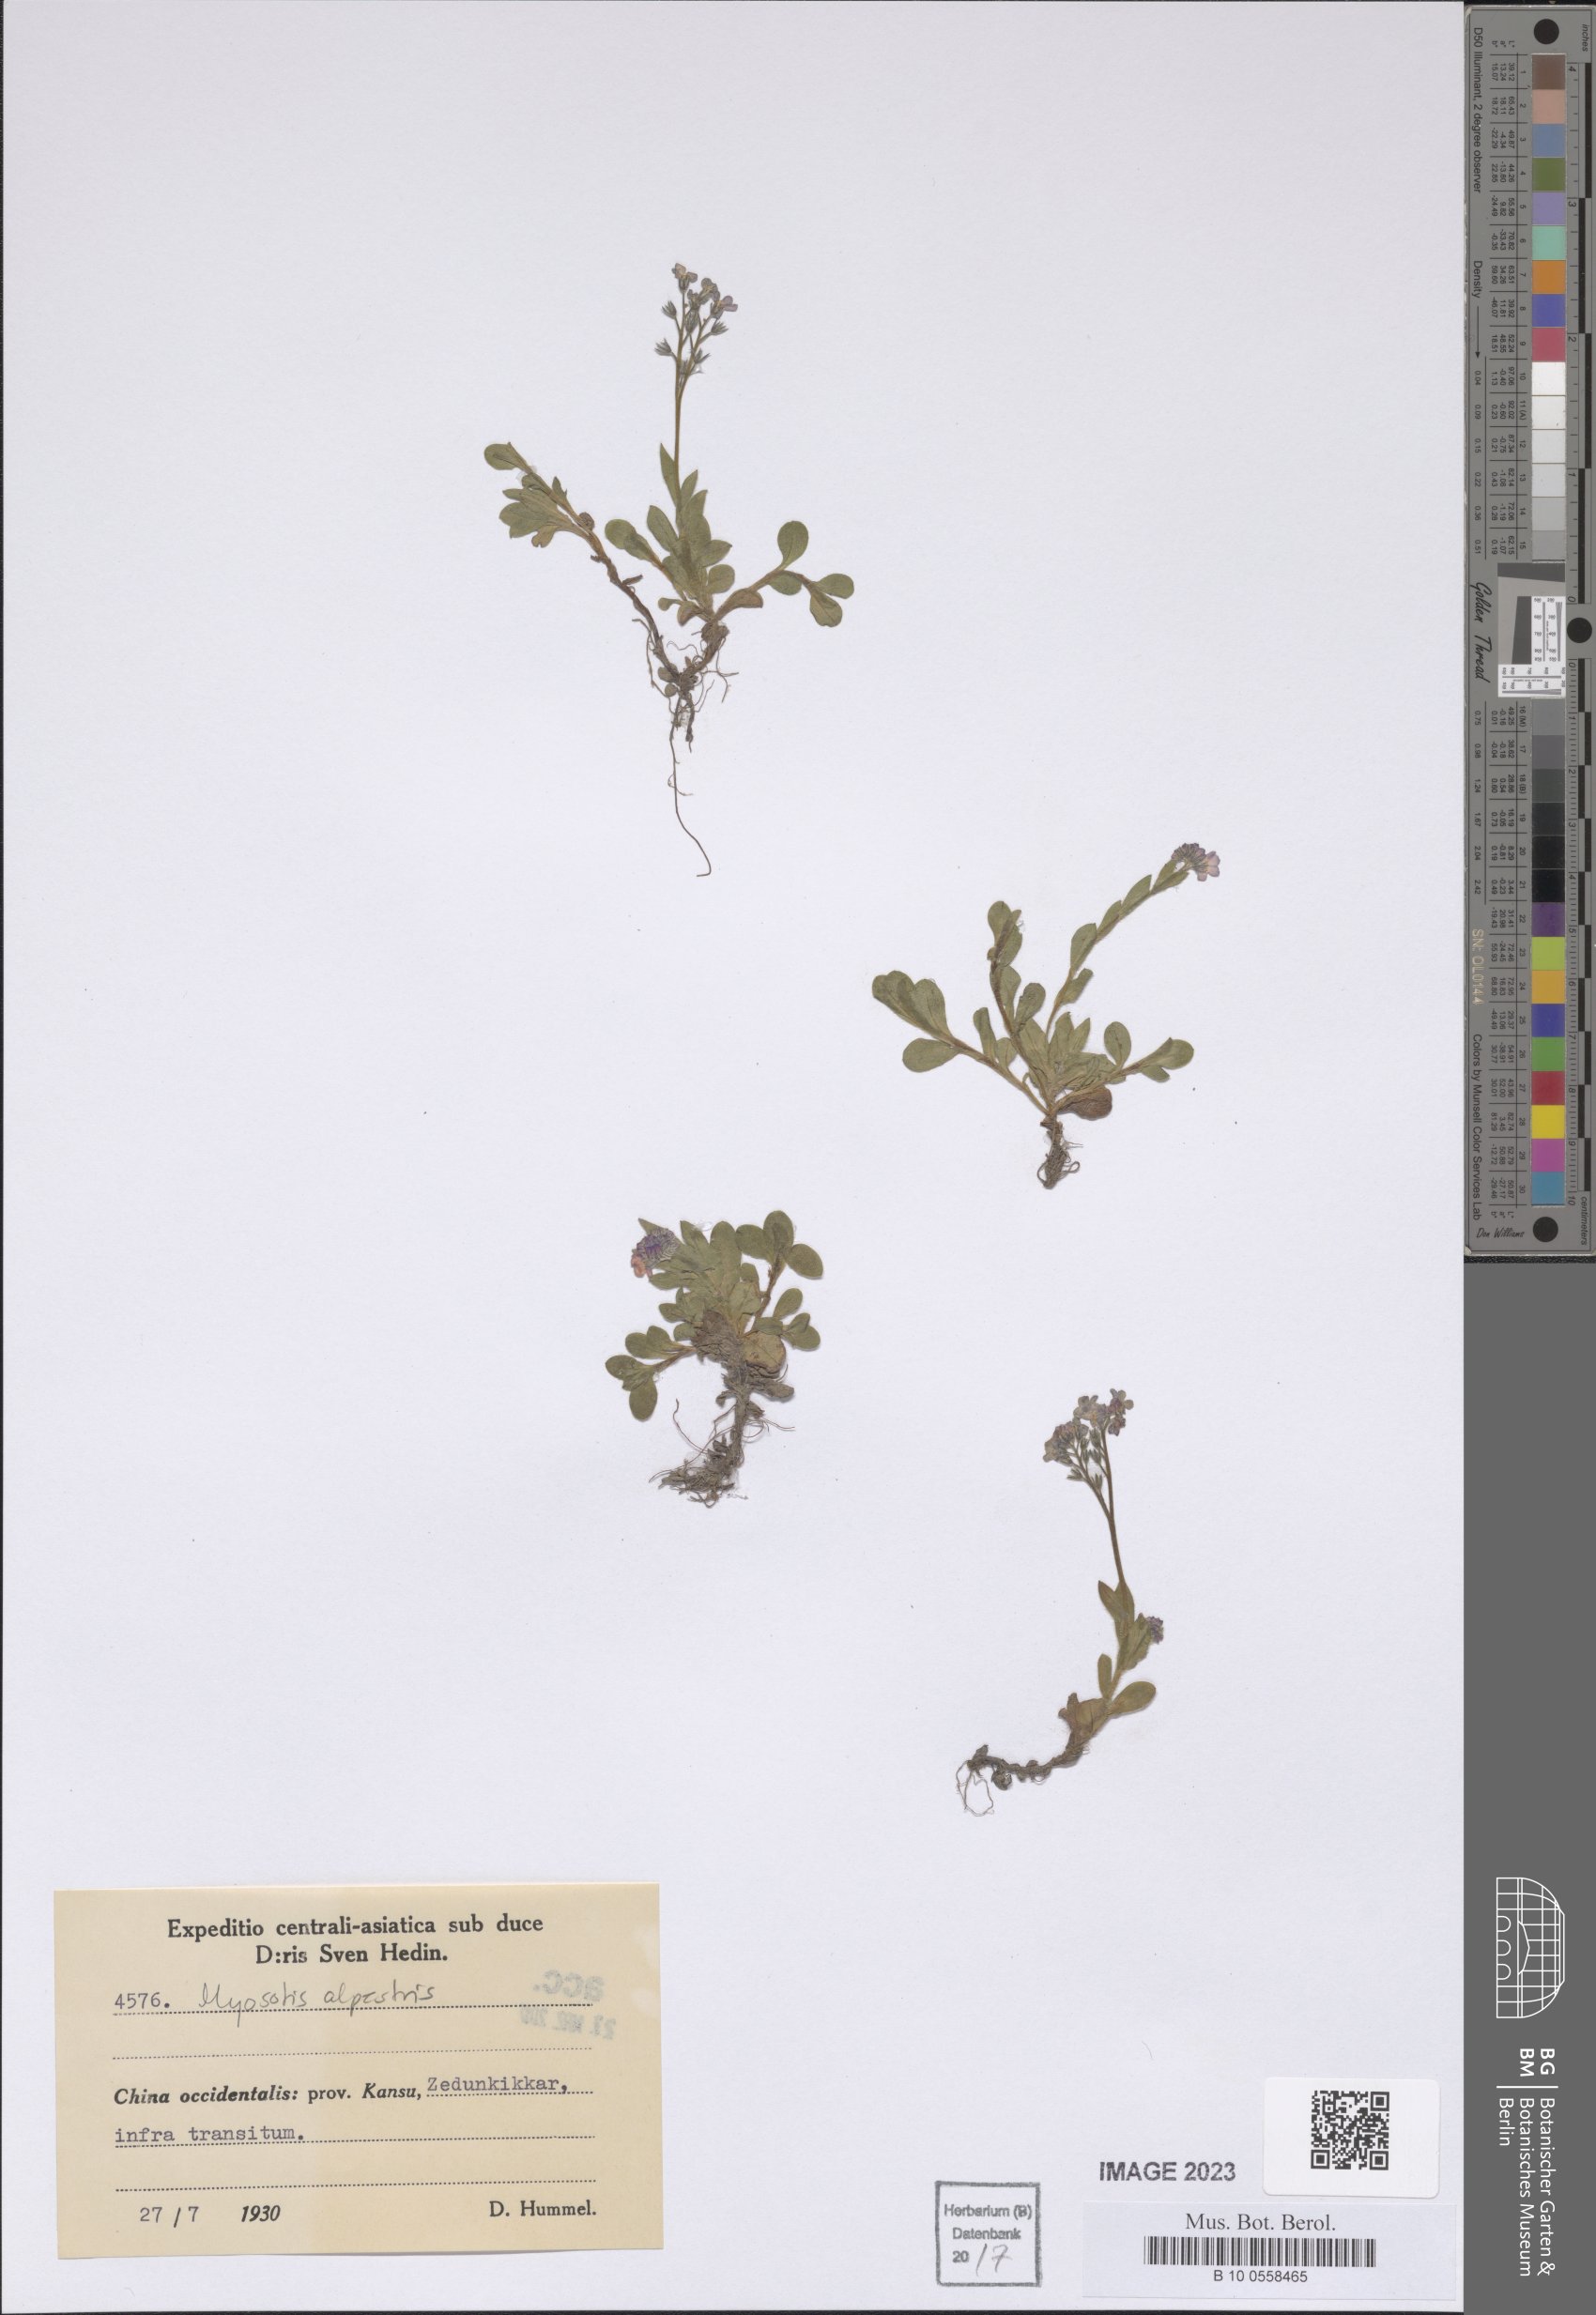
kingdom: Plantae
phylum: Tracheophyta
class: Magnoliopsida
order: Boraginales
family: Boraginaceae
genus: Myosotis
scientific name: Myosotis alpestris
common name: Alpine forget-me-not
